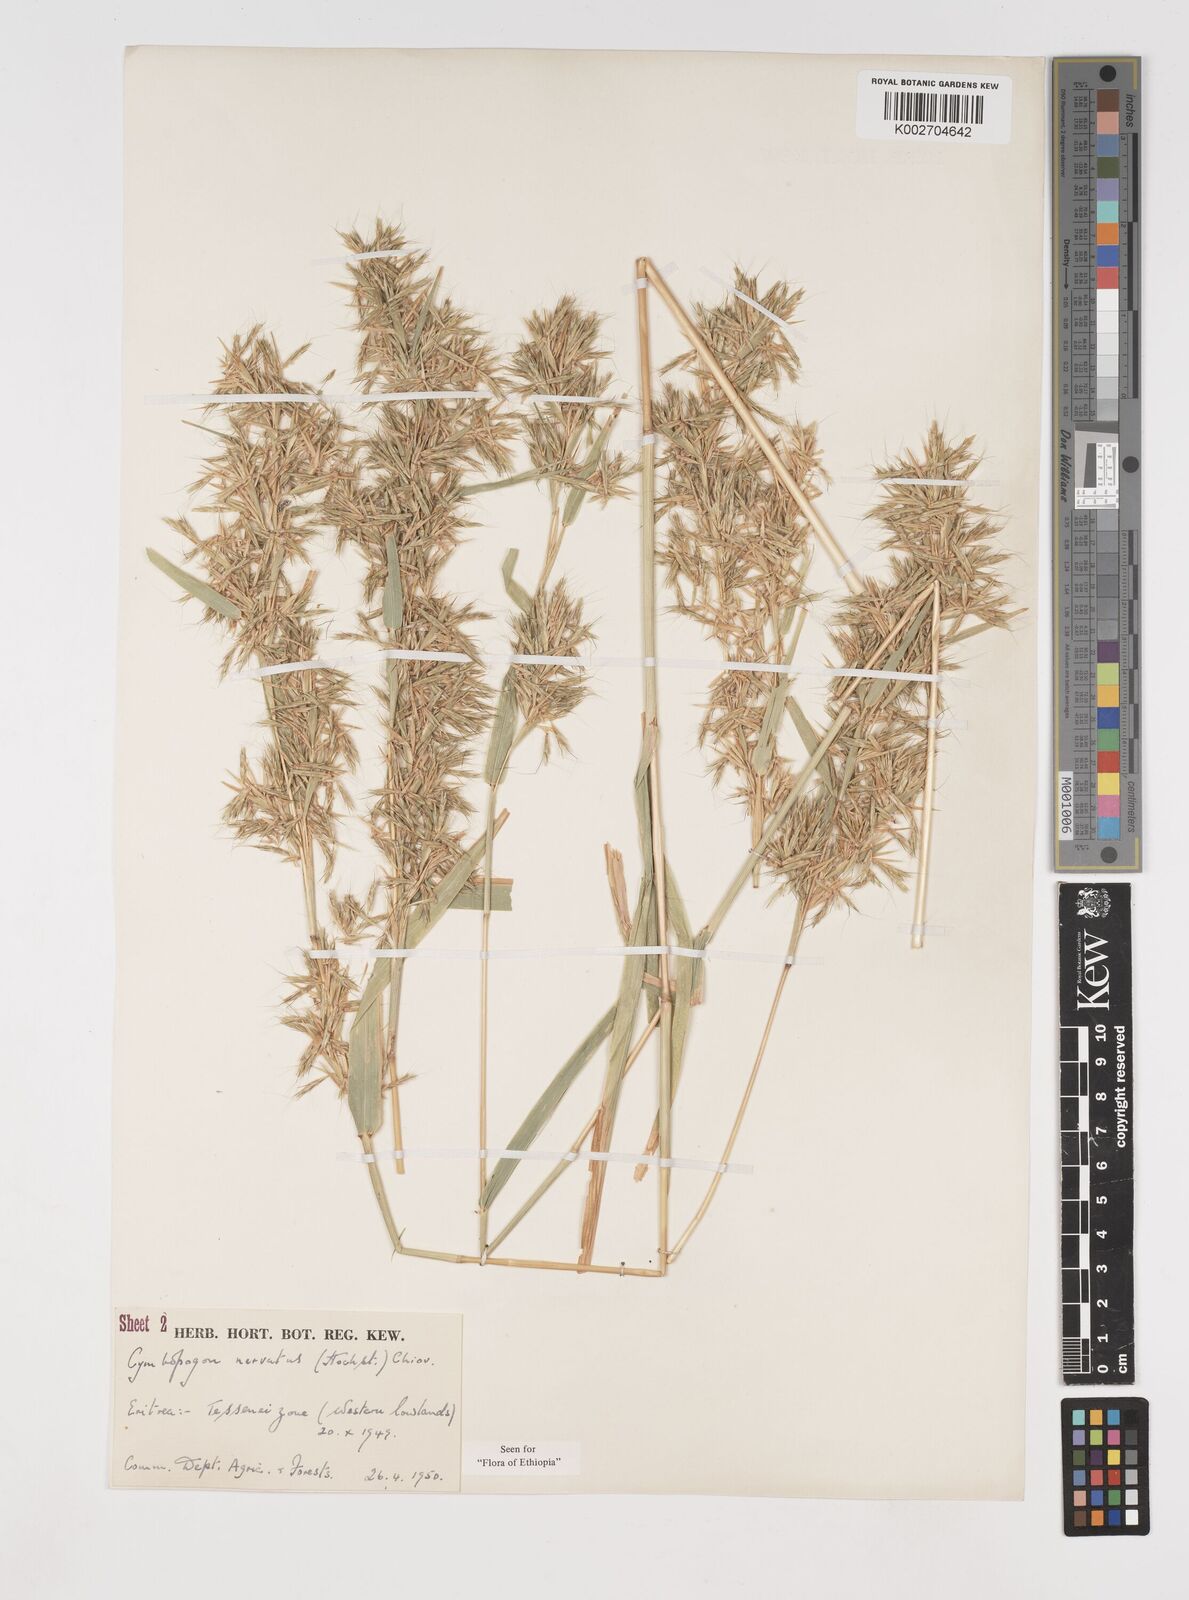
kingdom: Plantae
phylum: Tracheophyta
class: Liliopsida
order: Poales
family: Poaceae
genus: Cymbopogon
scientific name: Cymbopogon nervatus
